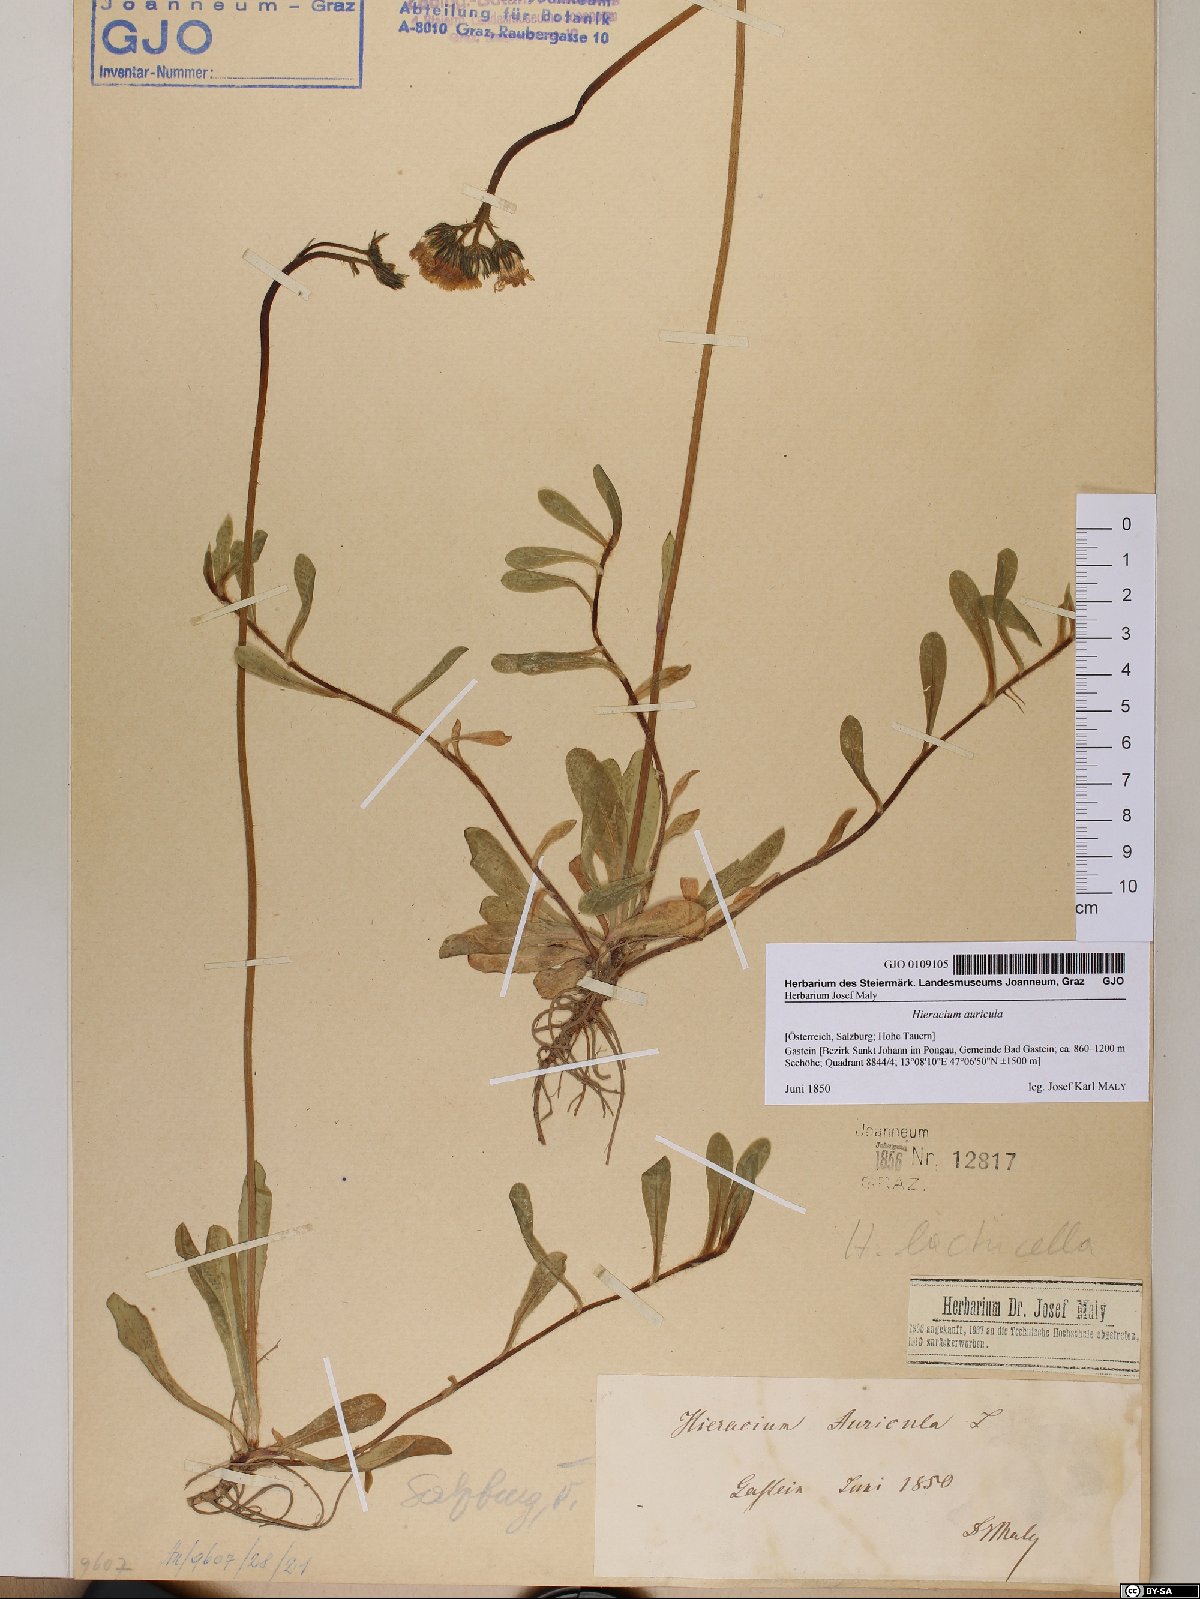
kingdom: Plantae
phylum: Tracheophyta
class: Magnoliopsida
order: Asterales
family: Asteraceae
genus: Hieracium
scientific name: Hieracium auricula
